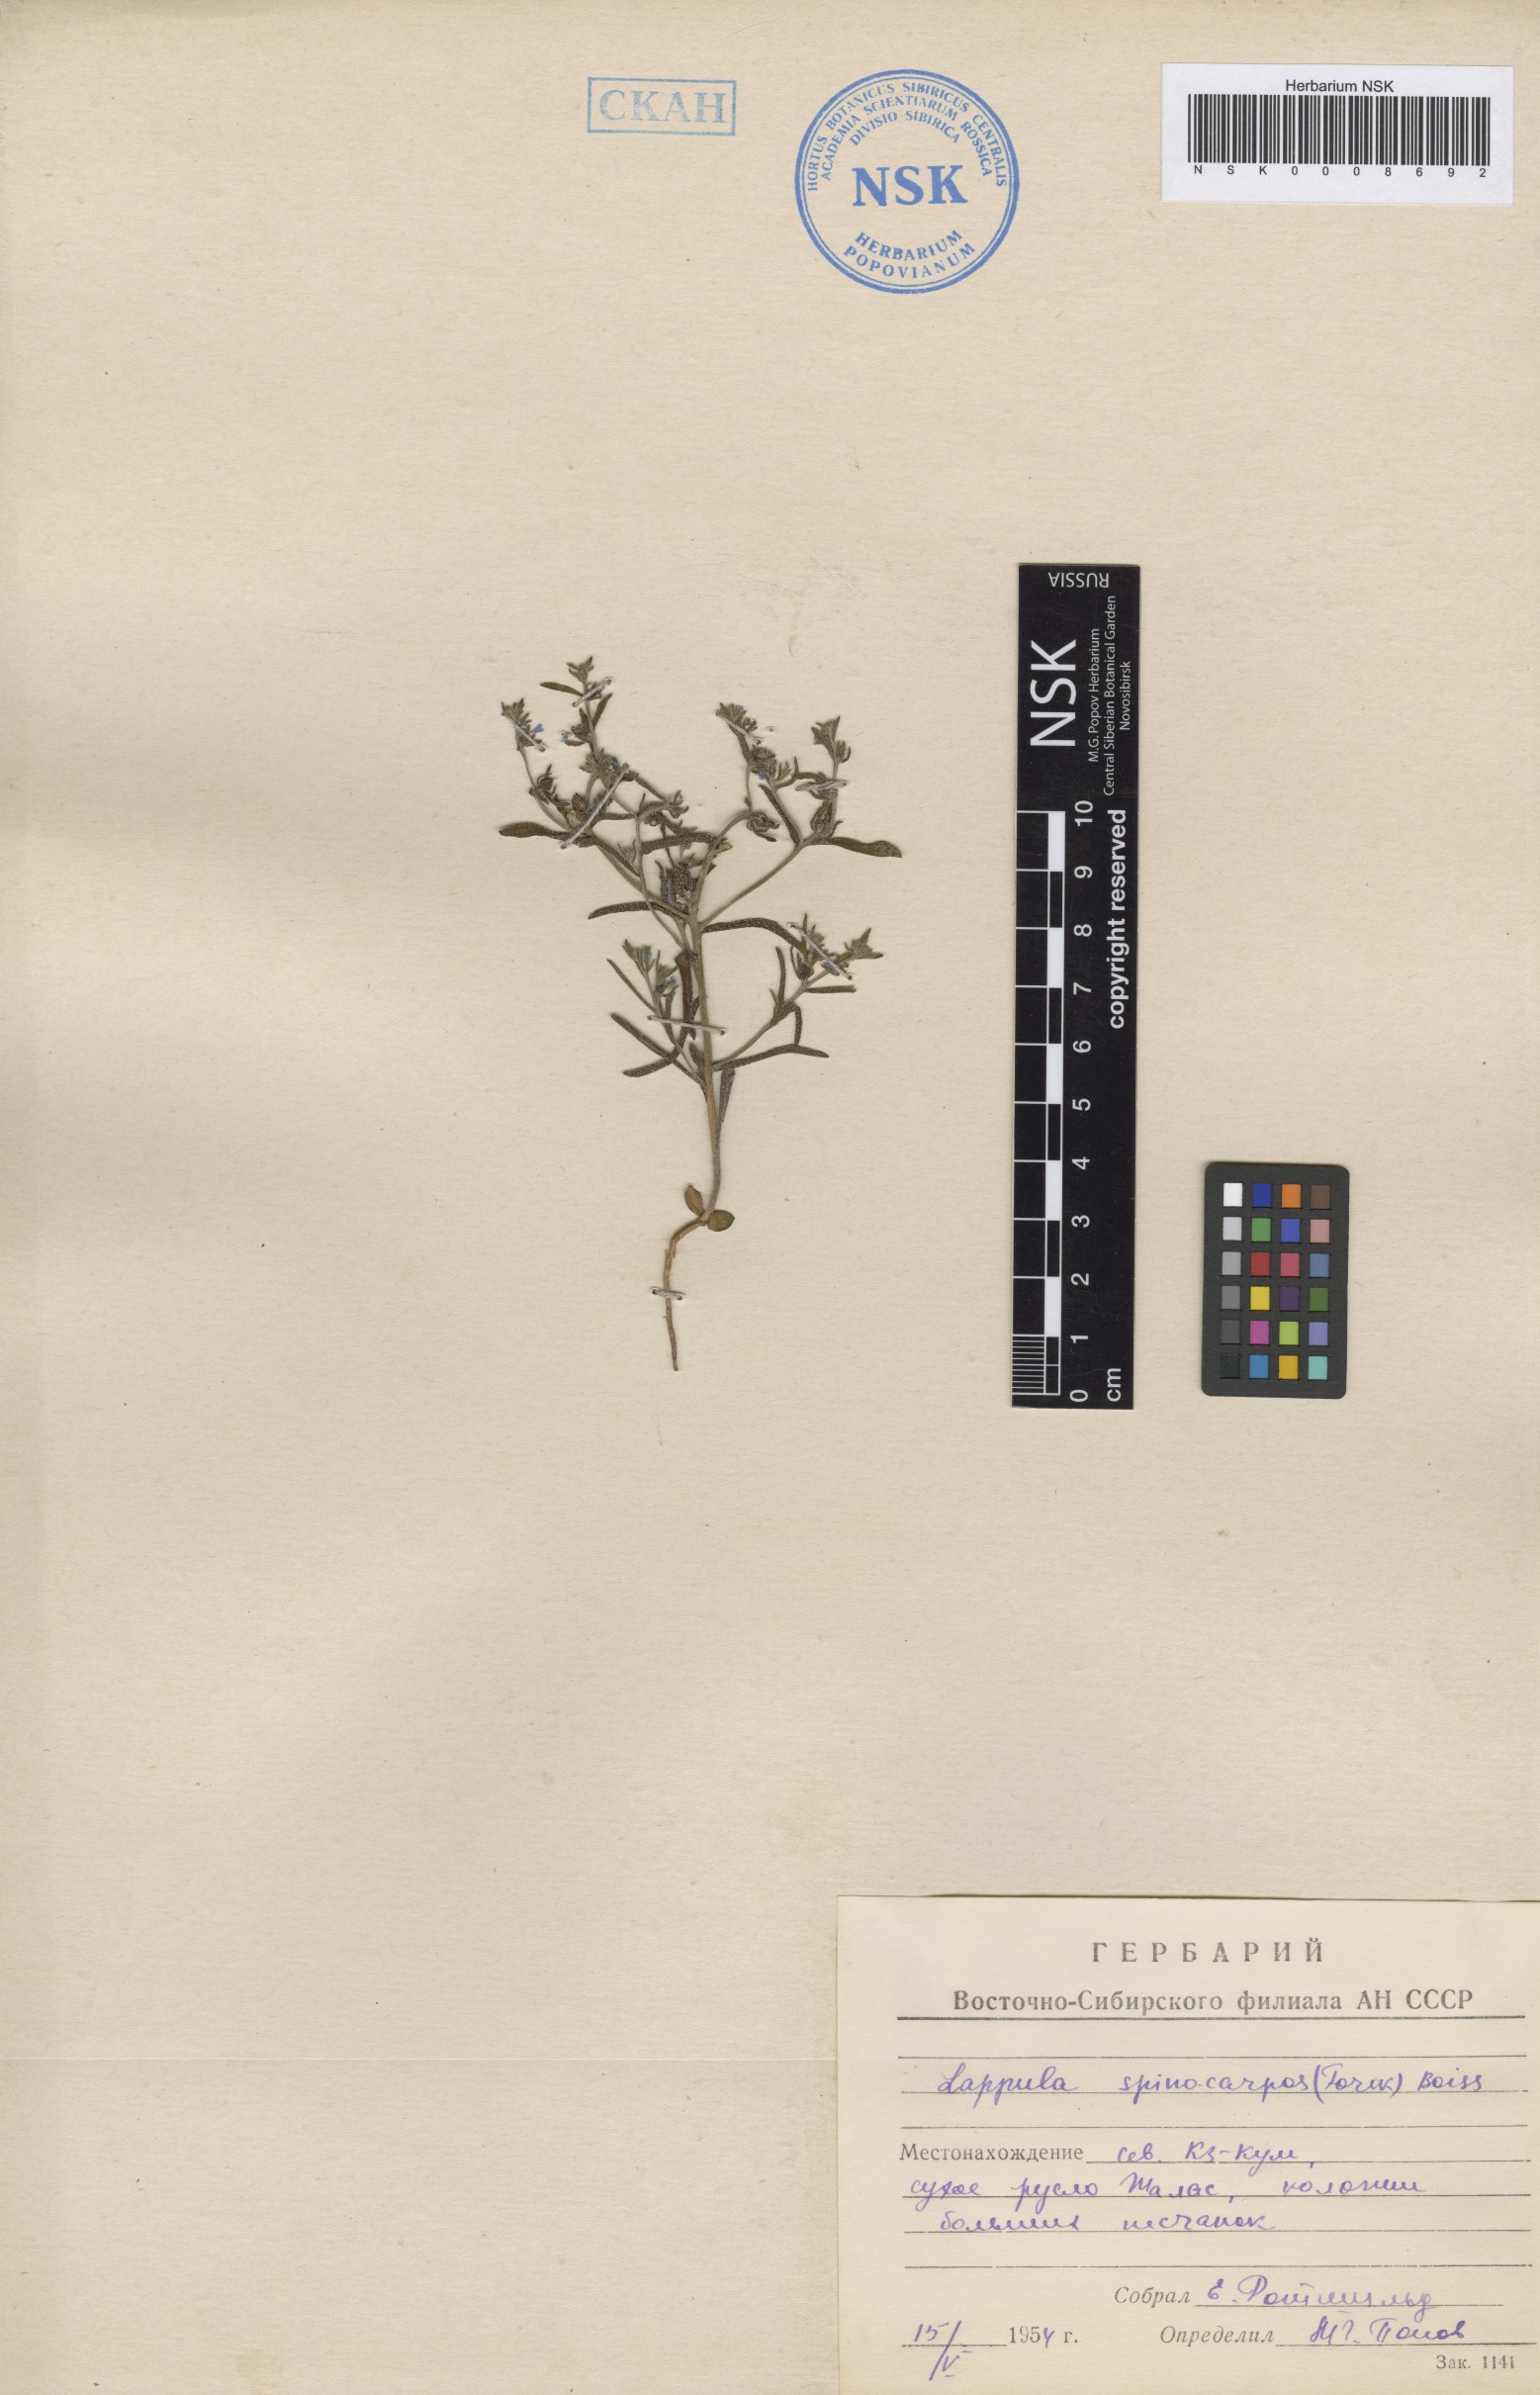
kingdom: Plantae
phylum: Tracheophyta
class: Magnoliopsida
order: Boraginales
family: Boraginaceae
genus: Lappula
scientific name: Lappula spinocarpos
